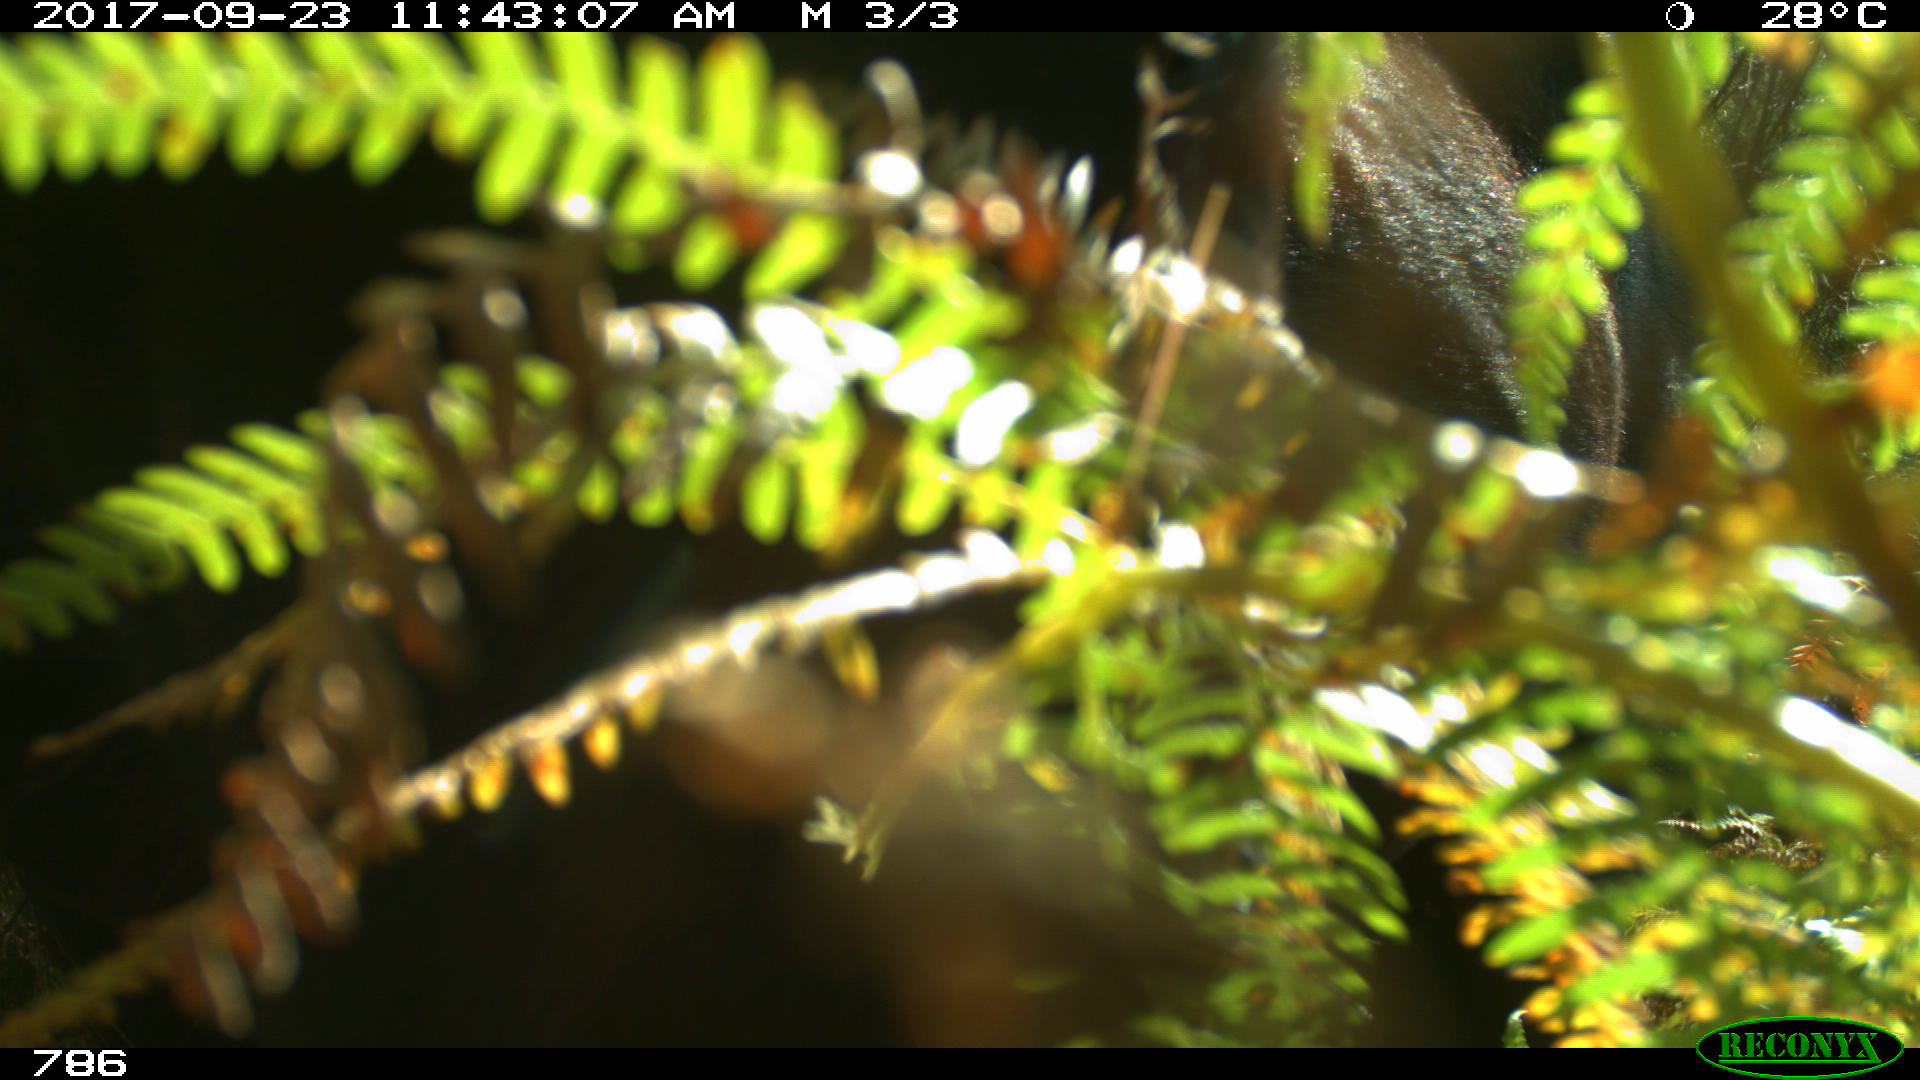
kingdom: Animalia
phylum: Chordata
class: Mammalia
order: Perissodactyla
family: Equidae
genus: Equus
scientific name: Equus caballus
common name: Horse
